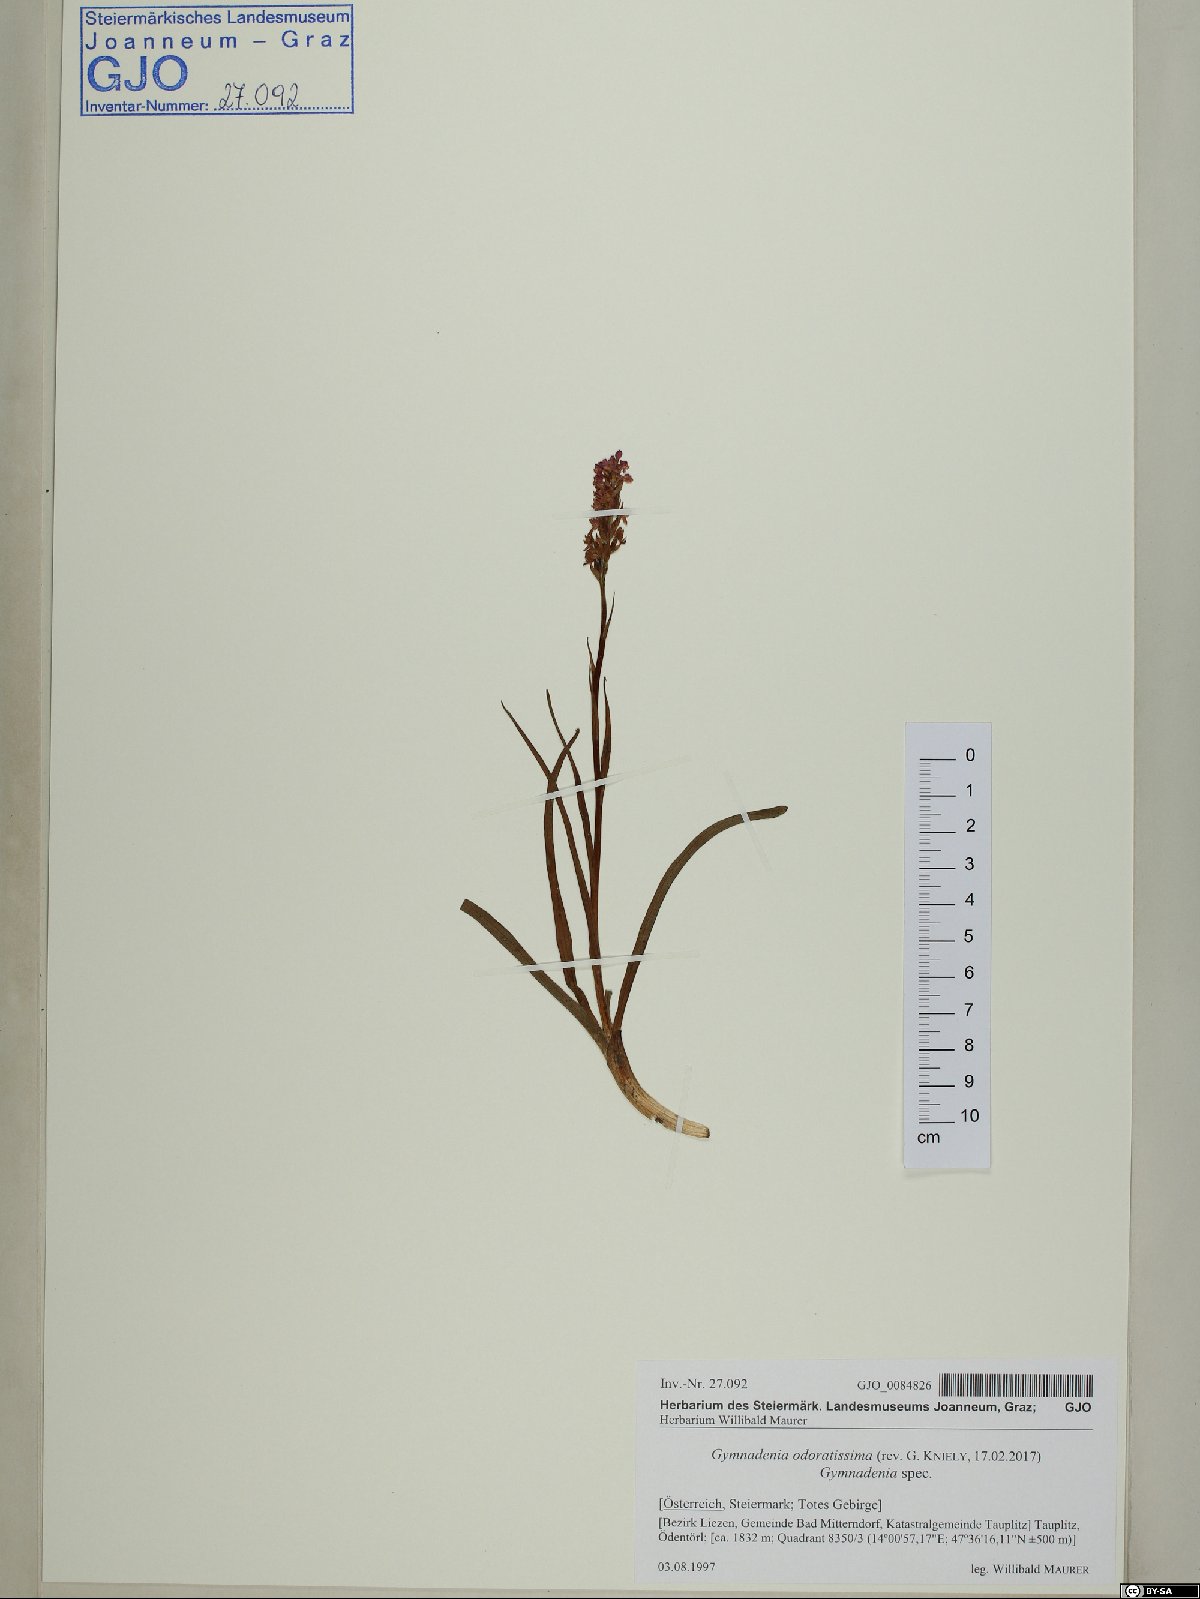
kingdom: Plantae
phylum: Tracheophyta
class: Liliopsida
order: Asparagales
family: Orchidaceae
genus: Gymnadenia
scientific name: Gymnadenia odoratissima
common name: Scented gymnadenia
